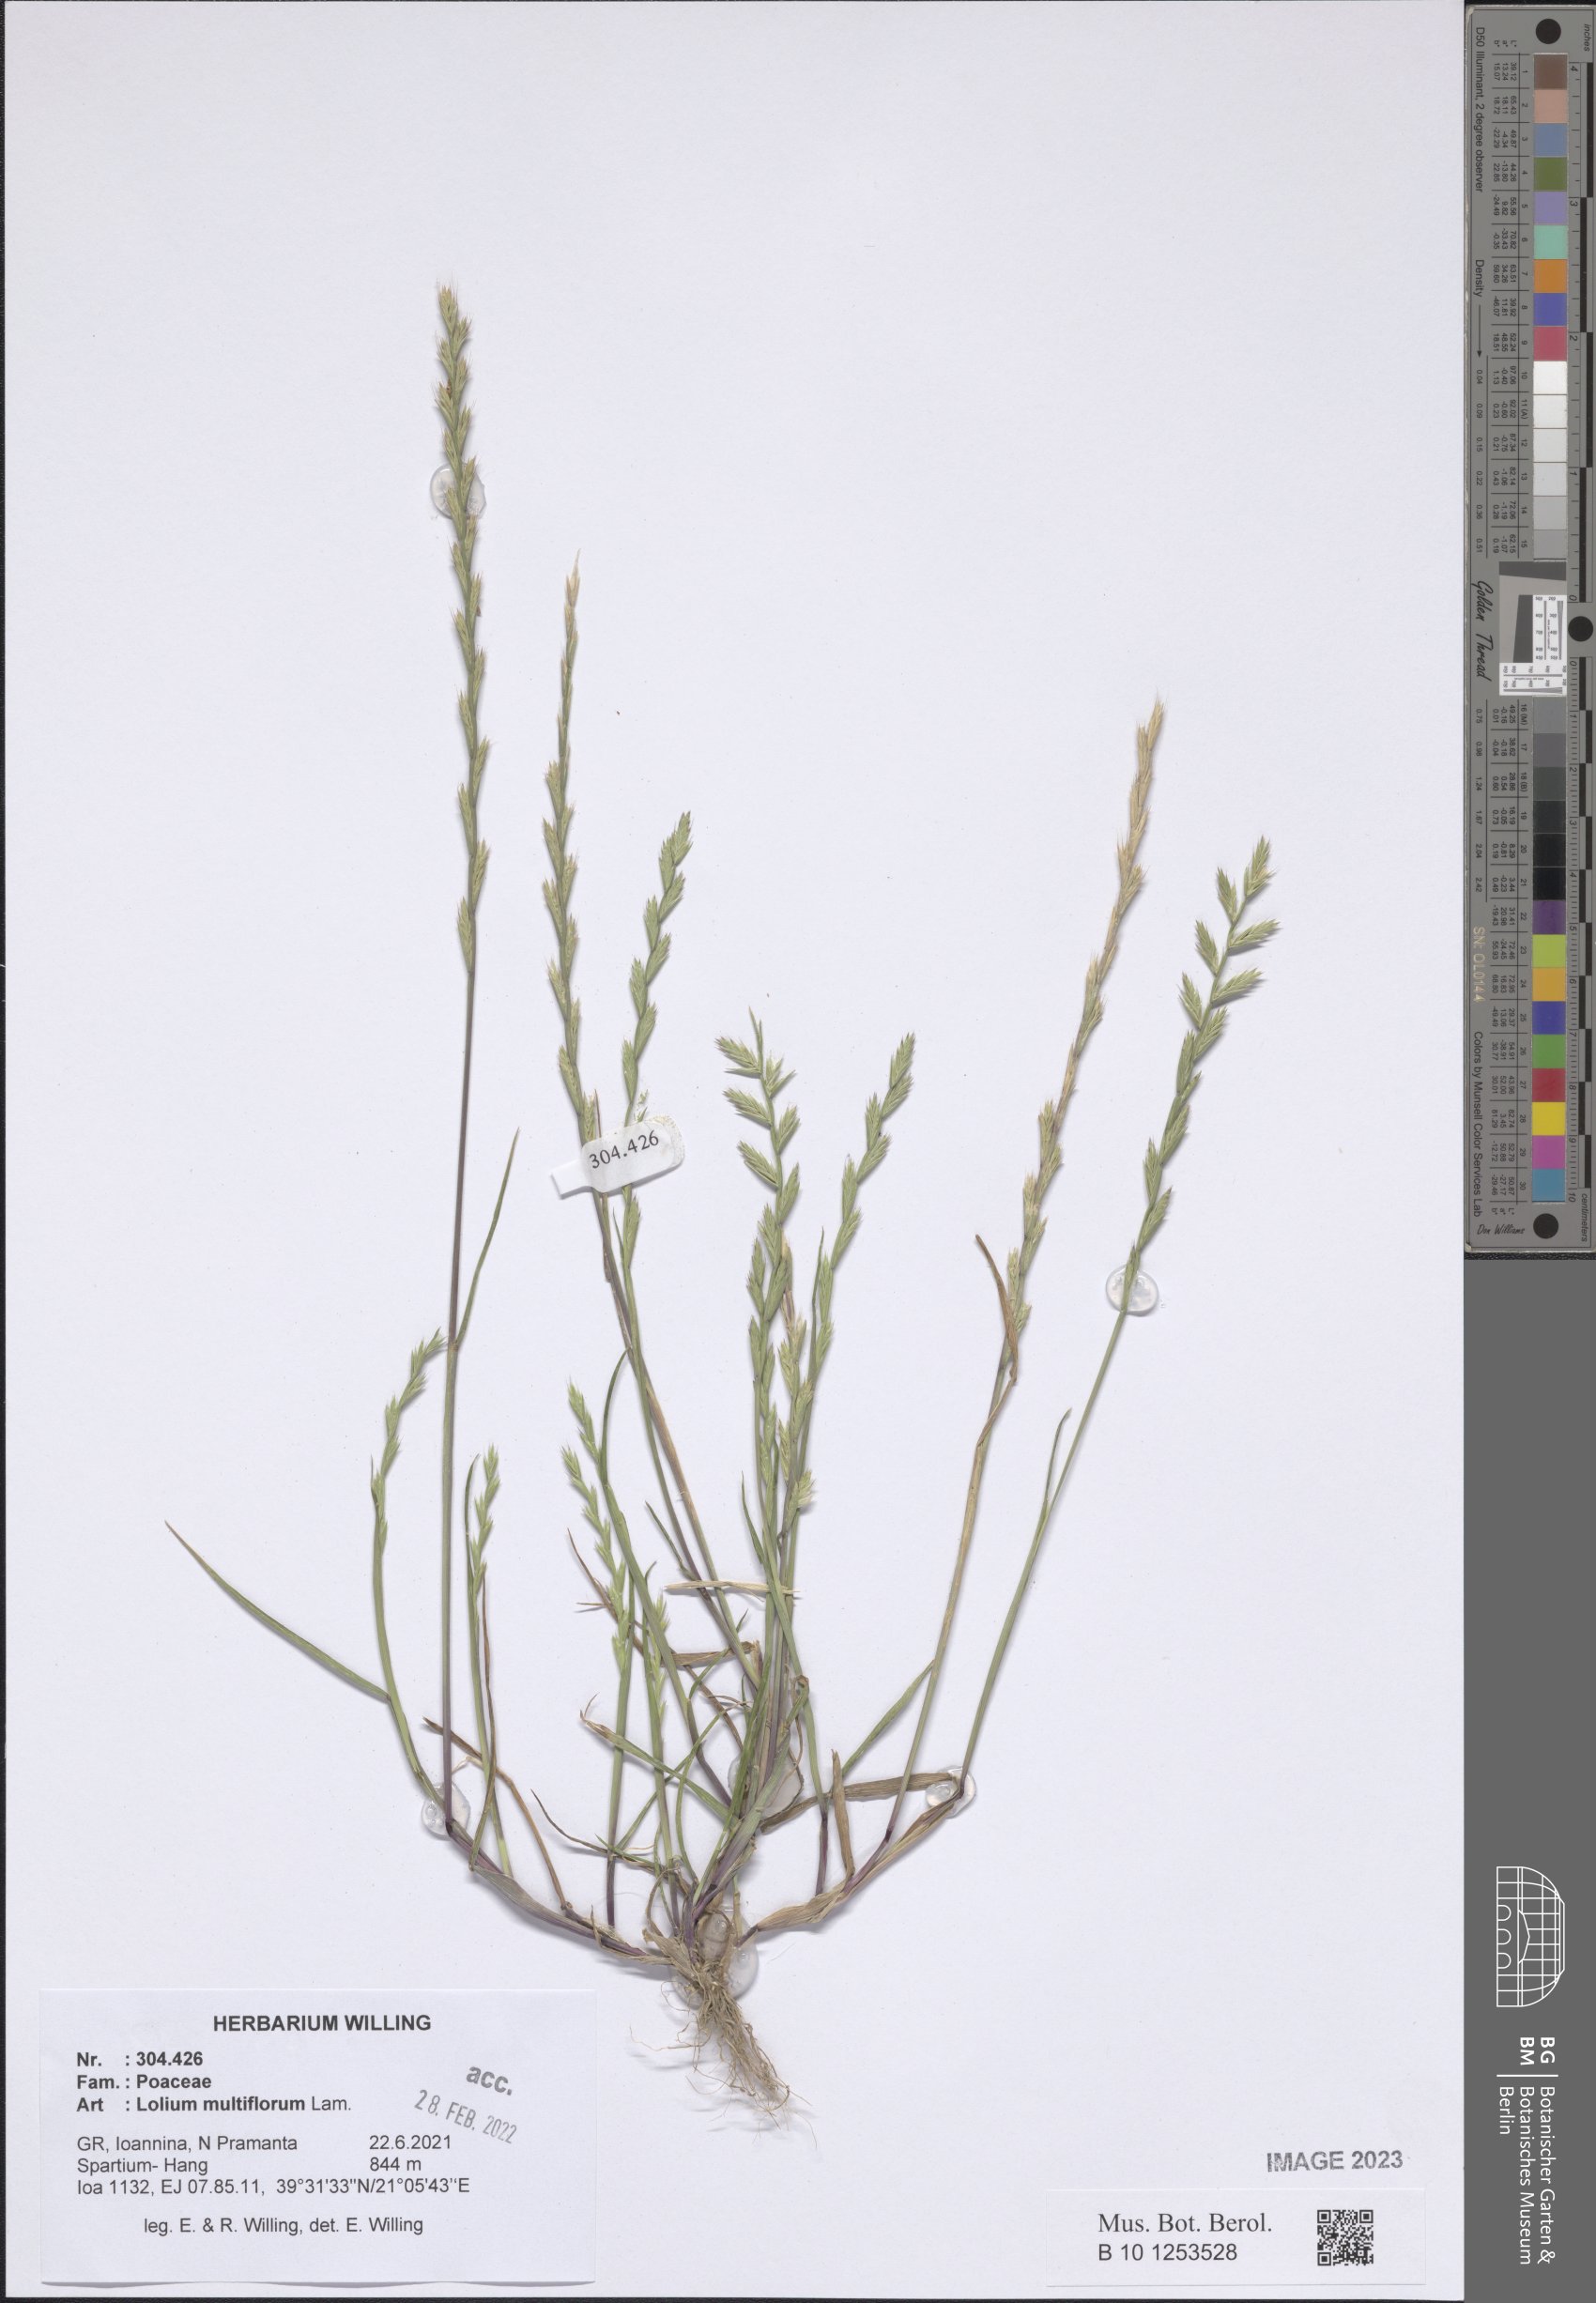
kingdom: Plantae
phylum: Tracheophyta
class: Liliopsida
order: Poales
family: Poaceae
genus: Lolium
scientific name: Lolium multiflorum
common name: Annual ryegrass
